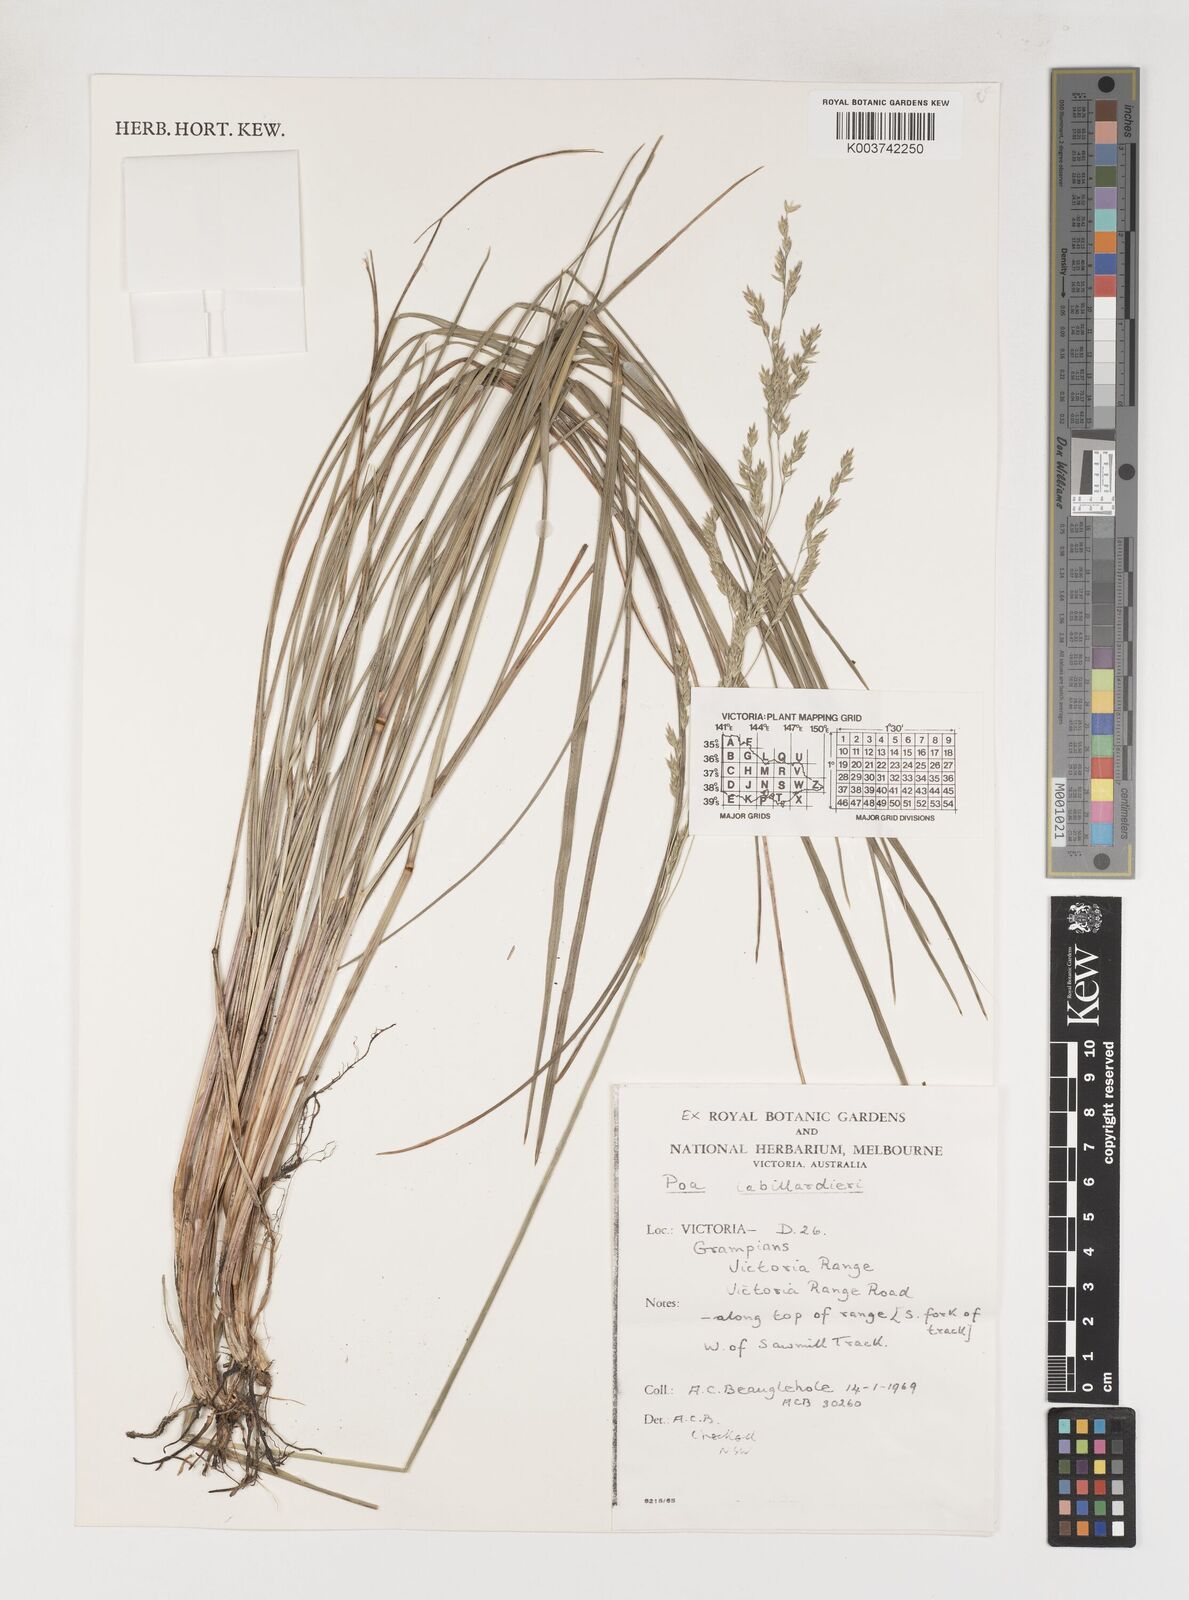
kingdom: Plantae
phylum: Tracheophyta
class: Liliopsida
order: Poales
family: Poaceae
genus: Poa
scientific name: Poa labillardierei
